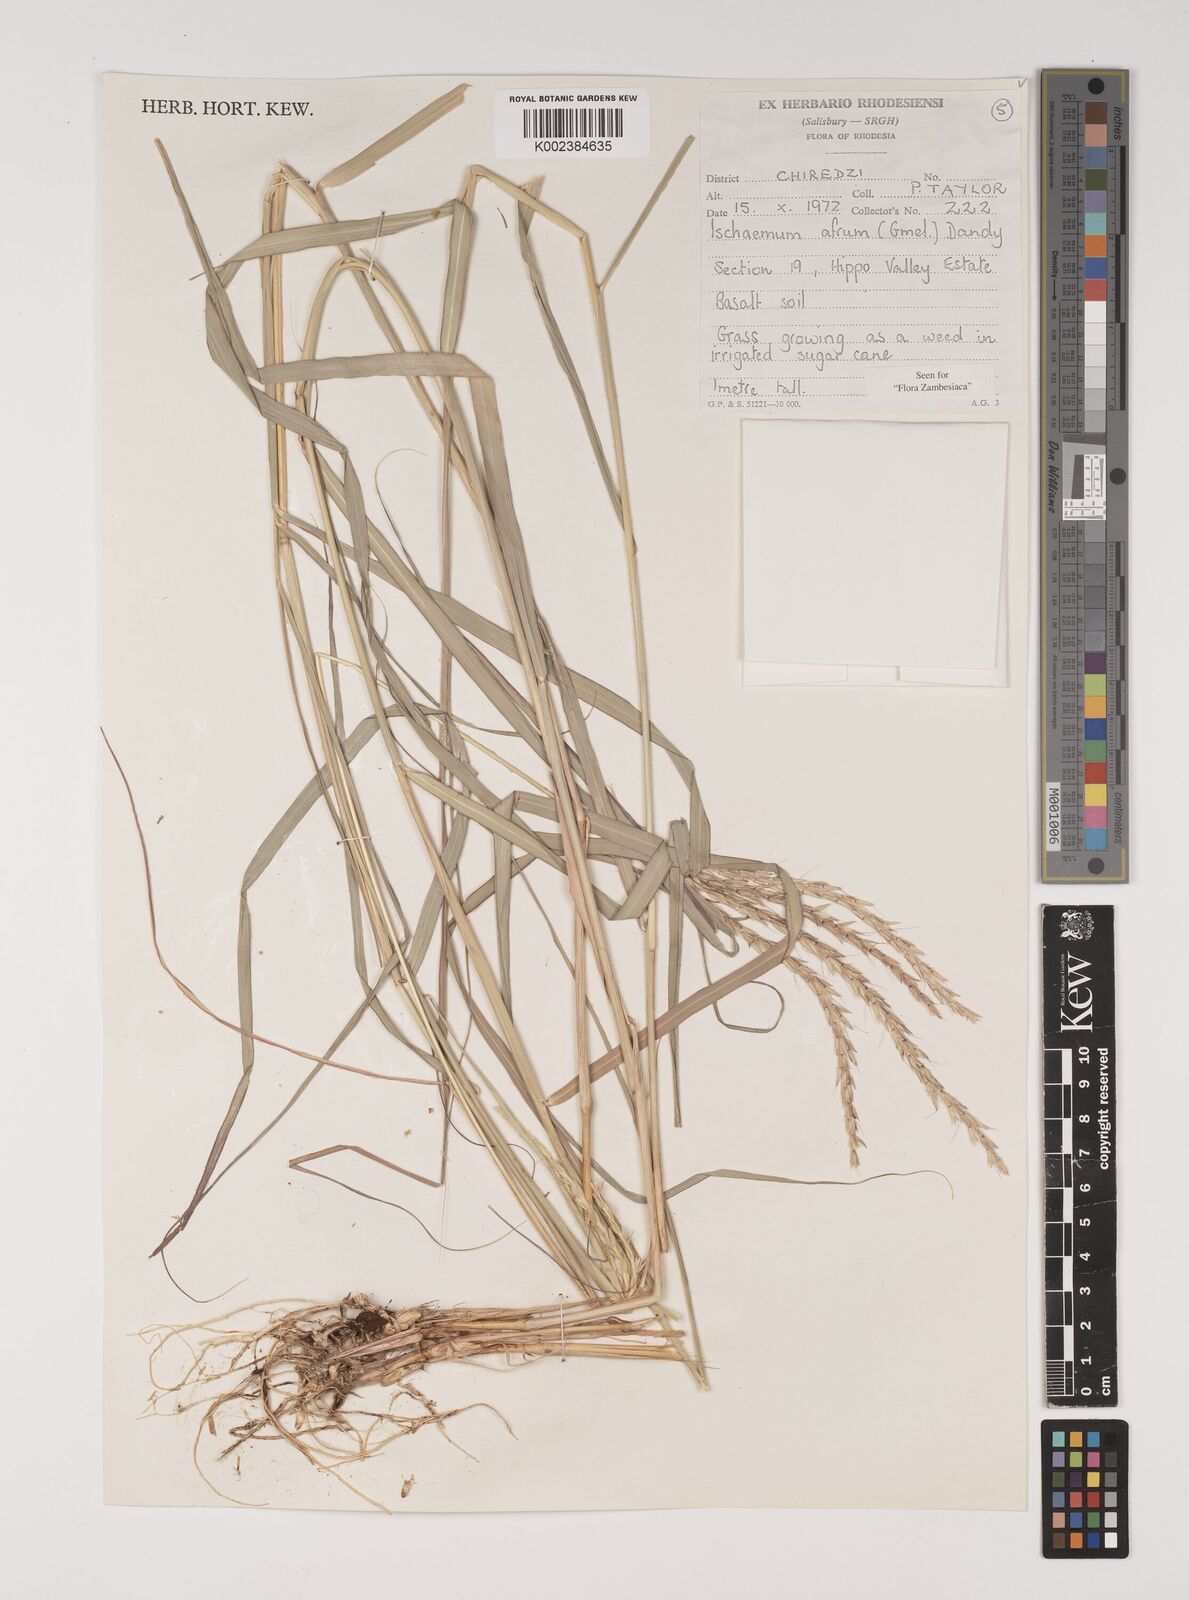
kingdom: Plantae
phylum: Tracheophyta
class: Liliopsida
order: Poales
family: Poaceae
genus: Ischaemum
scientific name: Ischaemum afrum
